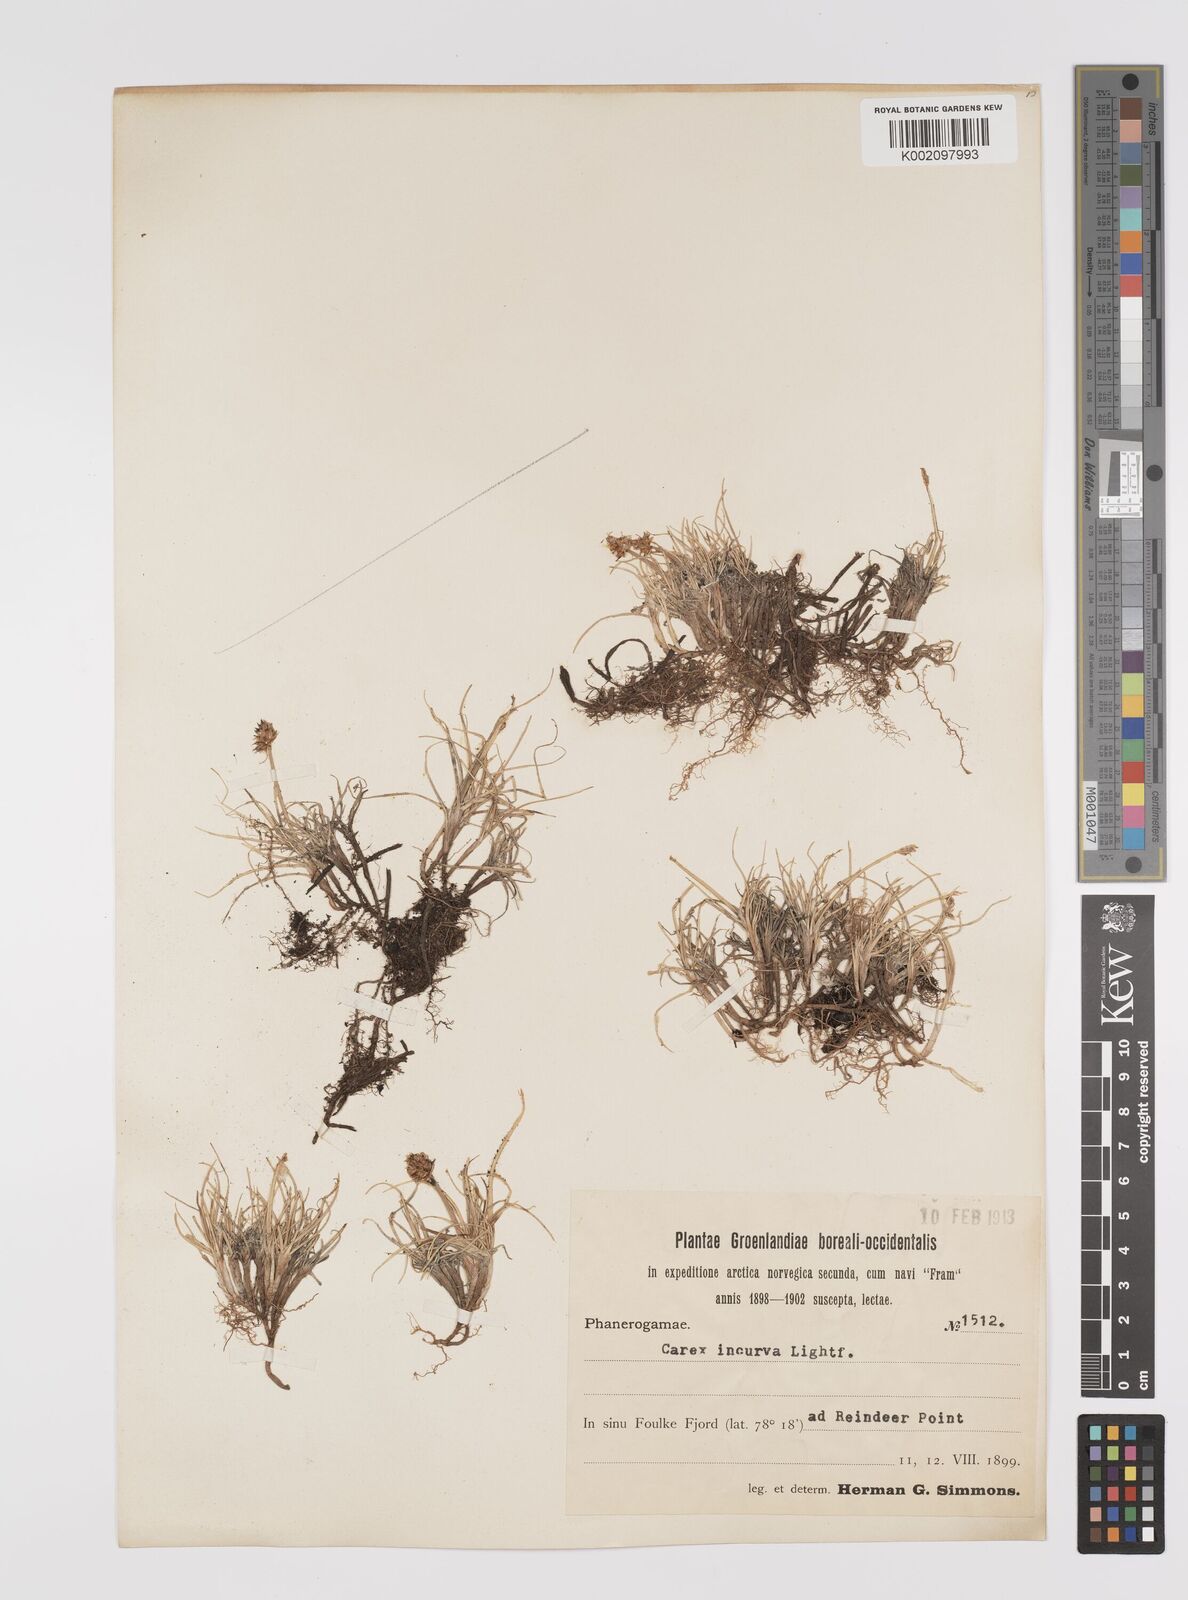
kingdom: Plantae
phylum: Tracheophyta
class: Liliopsida
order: Poales
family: Cyperaceae
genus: Carex
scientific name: Carex maritima
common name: Curved sedge
